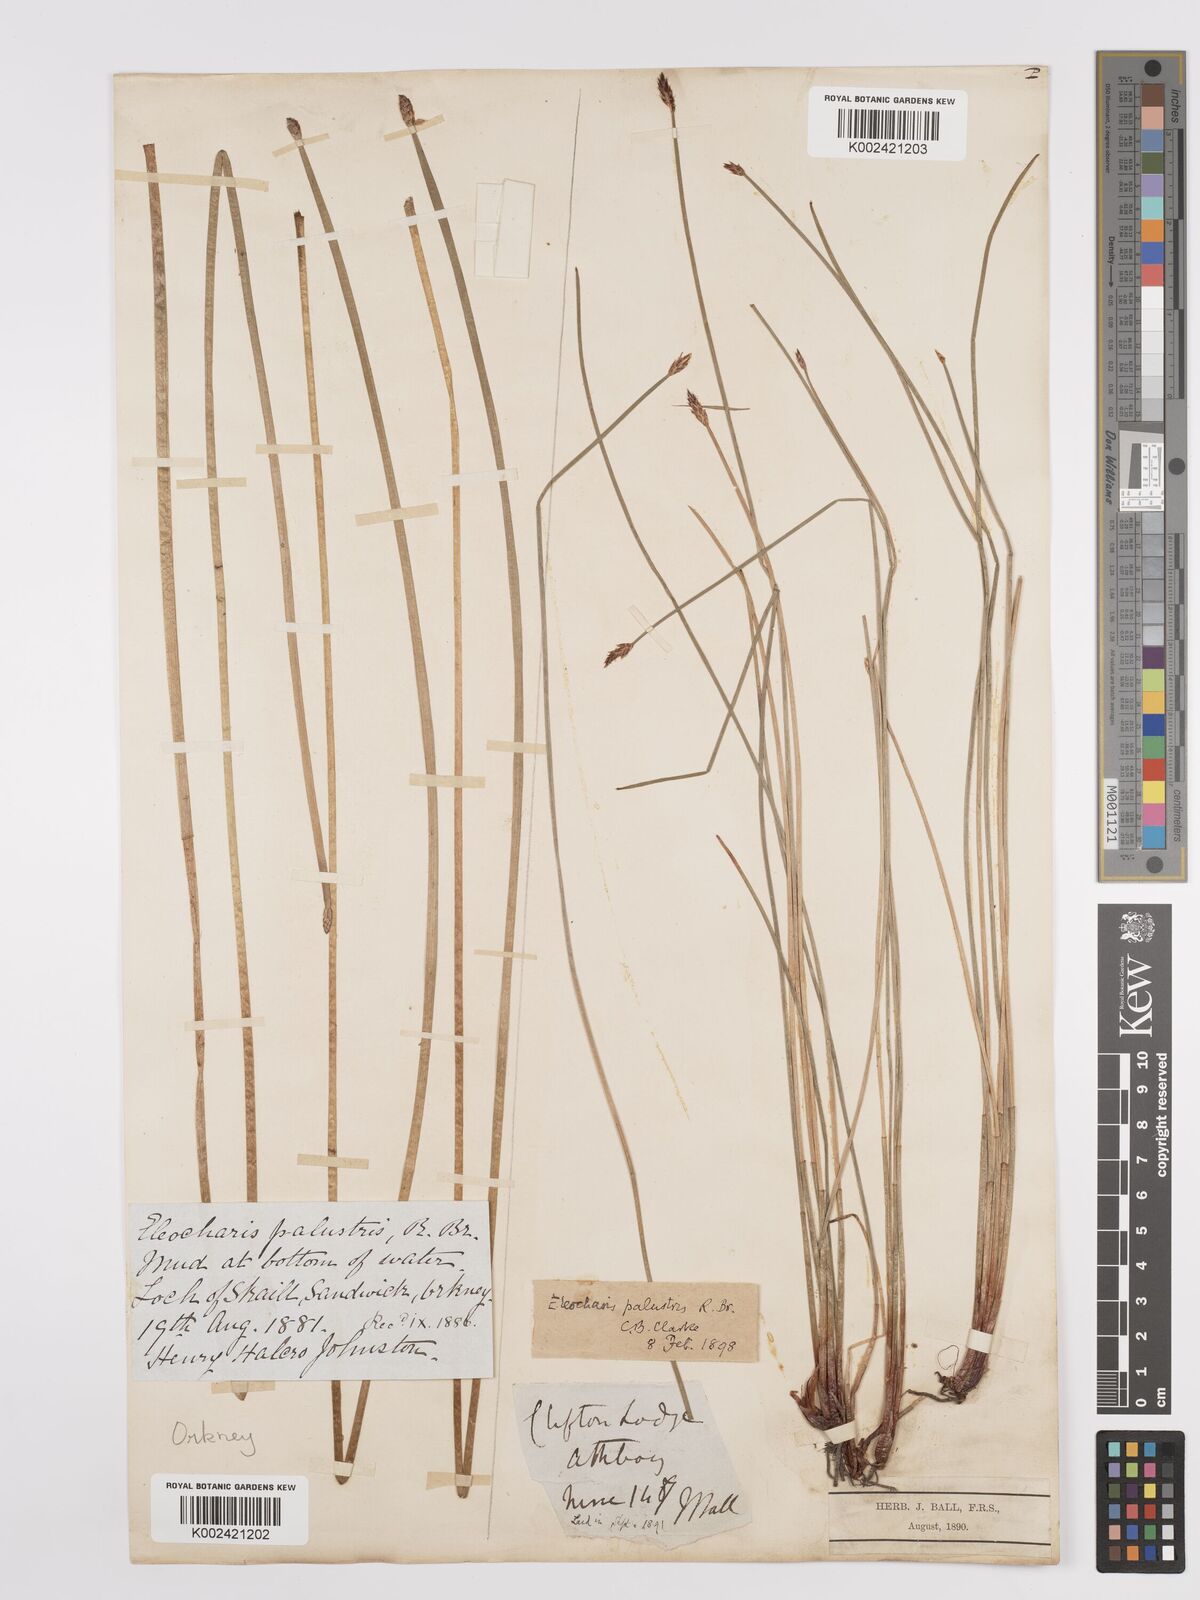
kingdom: Plantae
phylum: Tracheophyta
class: Liliopsida
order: Poales
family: Cyperaceae
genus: Eleocharis
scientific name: Eleocharis palustris
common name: Common spike-rush
